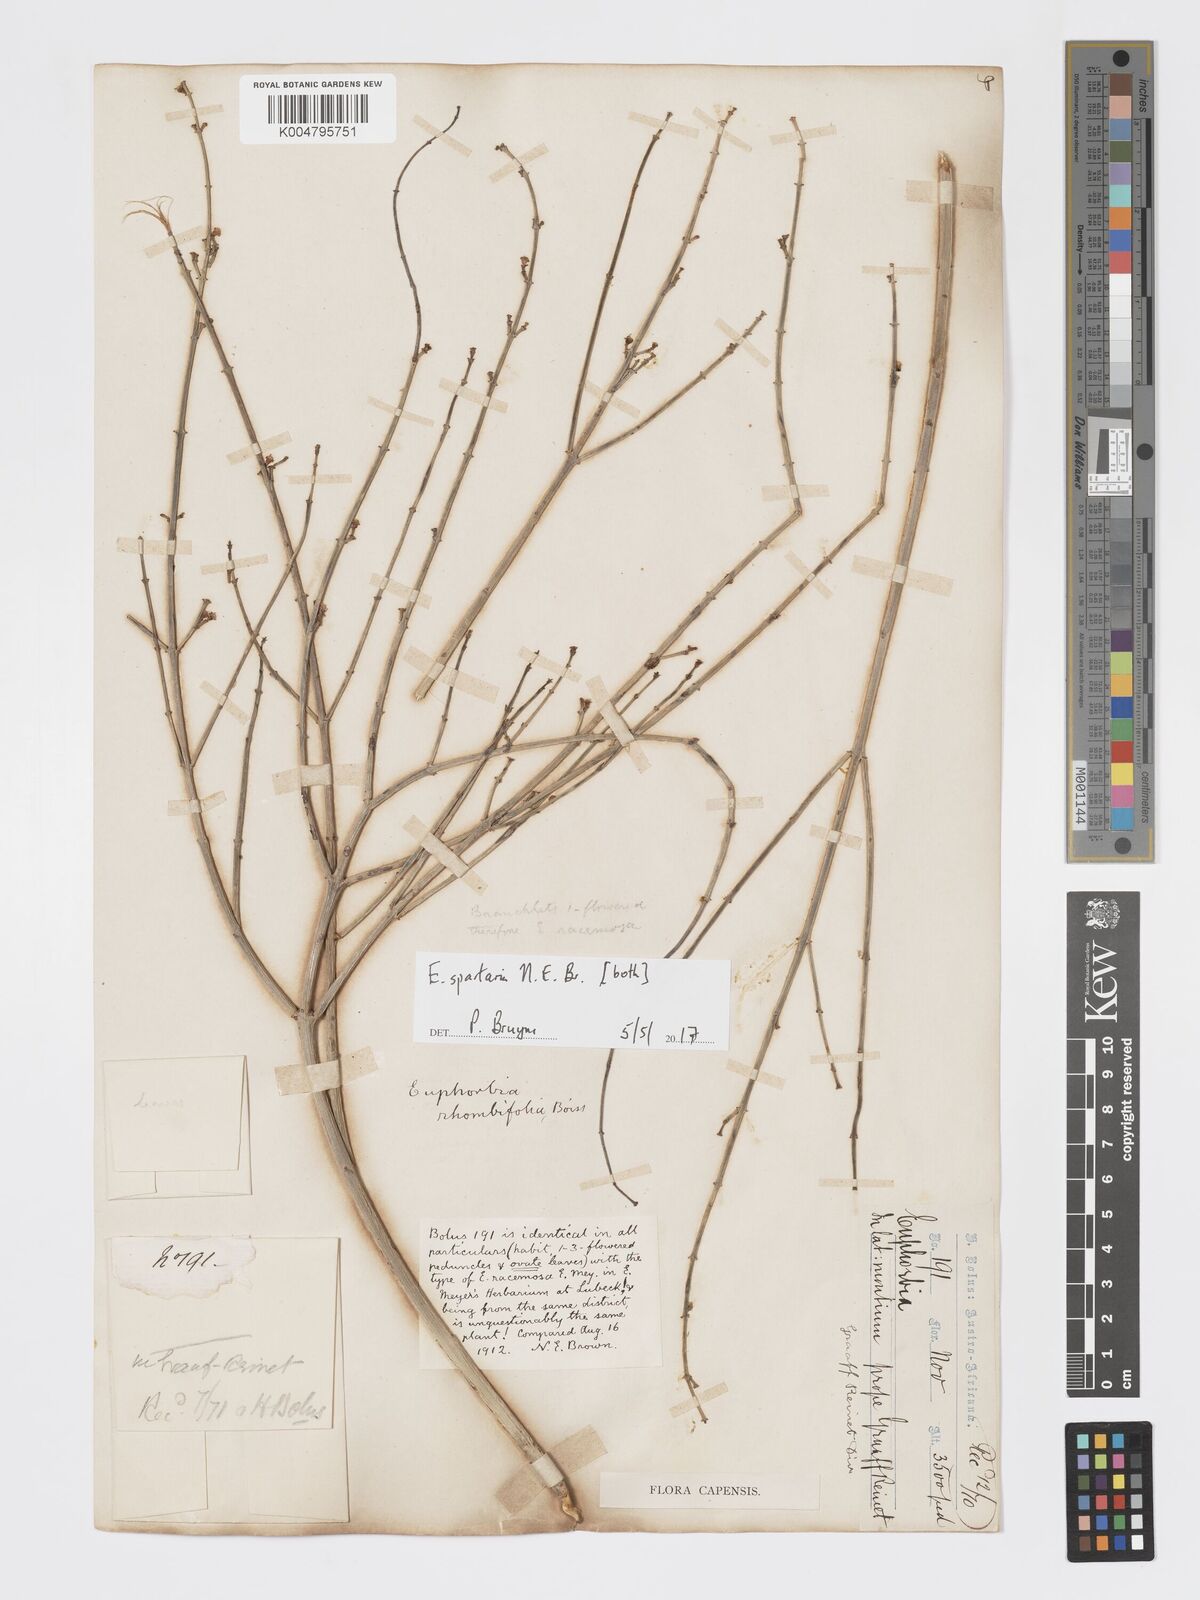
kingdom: Plantae
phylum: Tracheophyta
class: Magnoliopsida
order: Malpighiales
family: Euphorbiaceae
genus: Euphorbia
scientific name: Euphorbia spartaria
